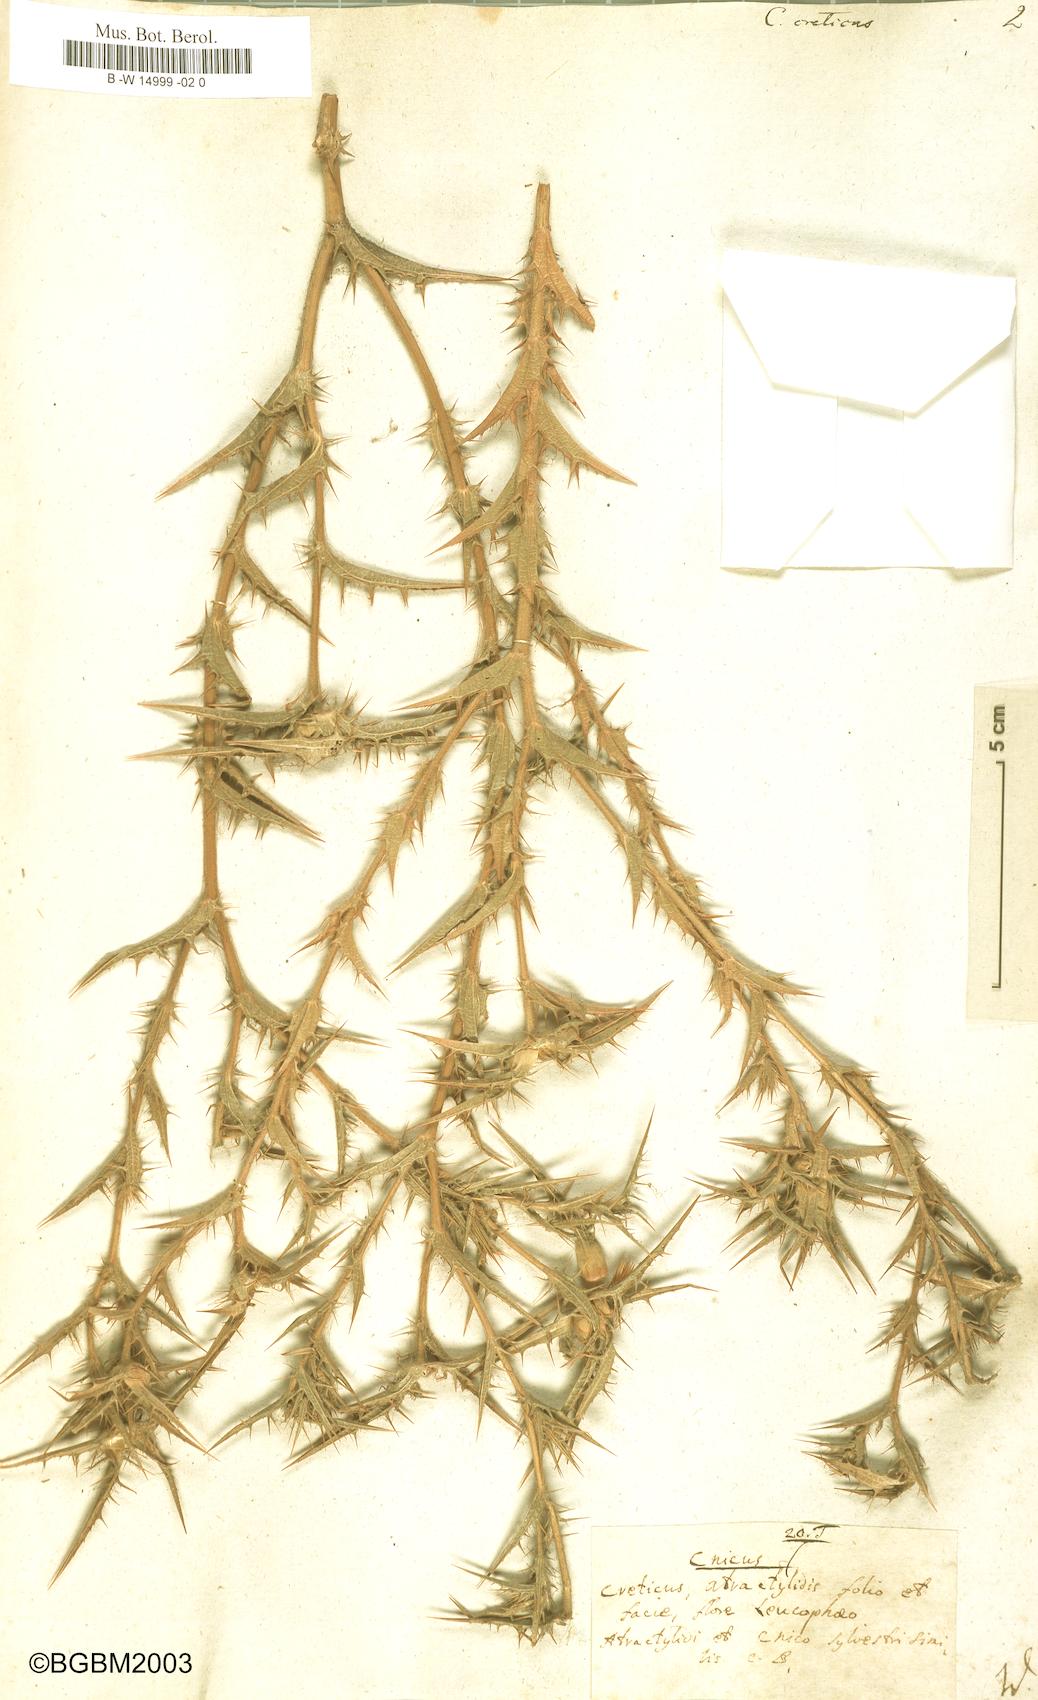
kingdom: Plantae
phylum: Tracheophyta
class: Magnoliopsida
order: Asterales
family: Asteraceae
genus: Carthamus
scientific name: Carthamus creticus
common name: Smooth distaff thistle
